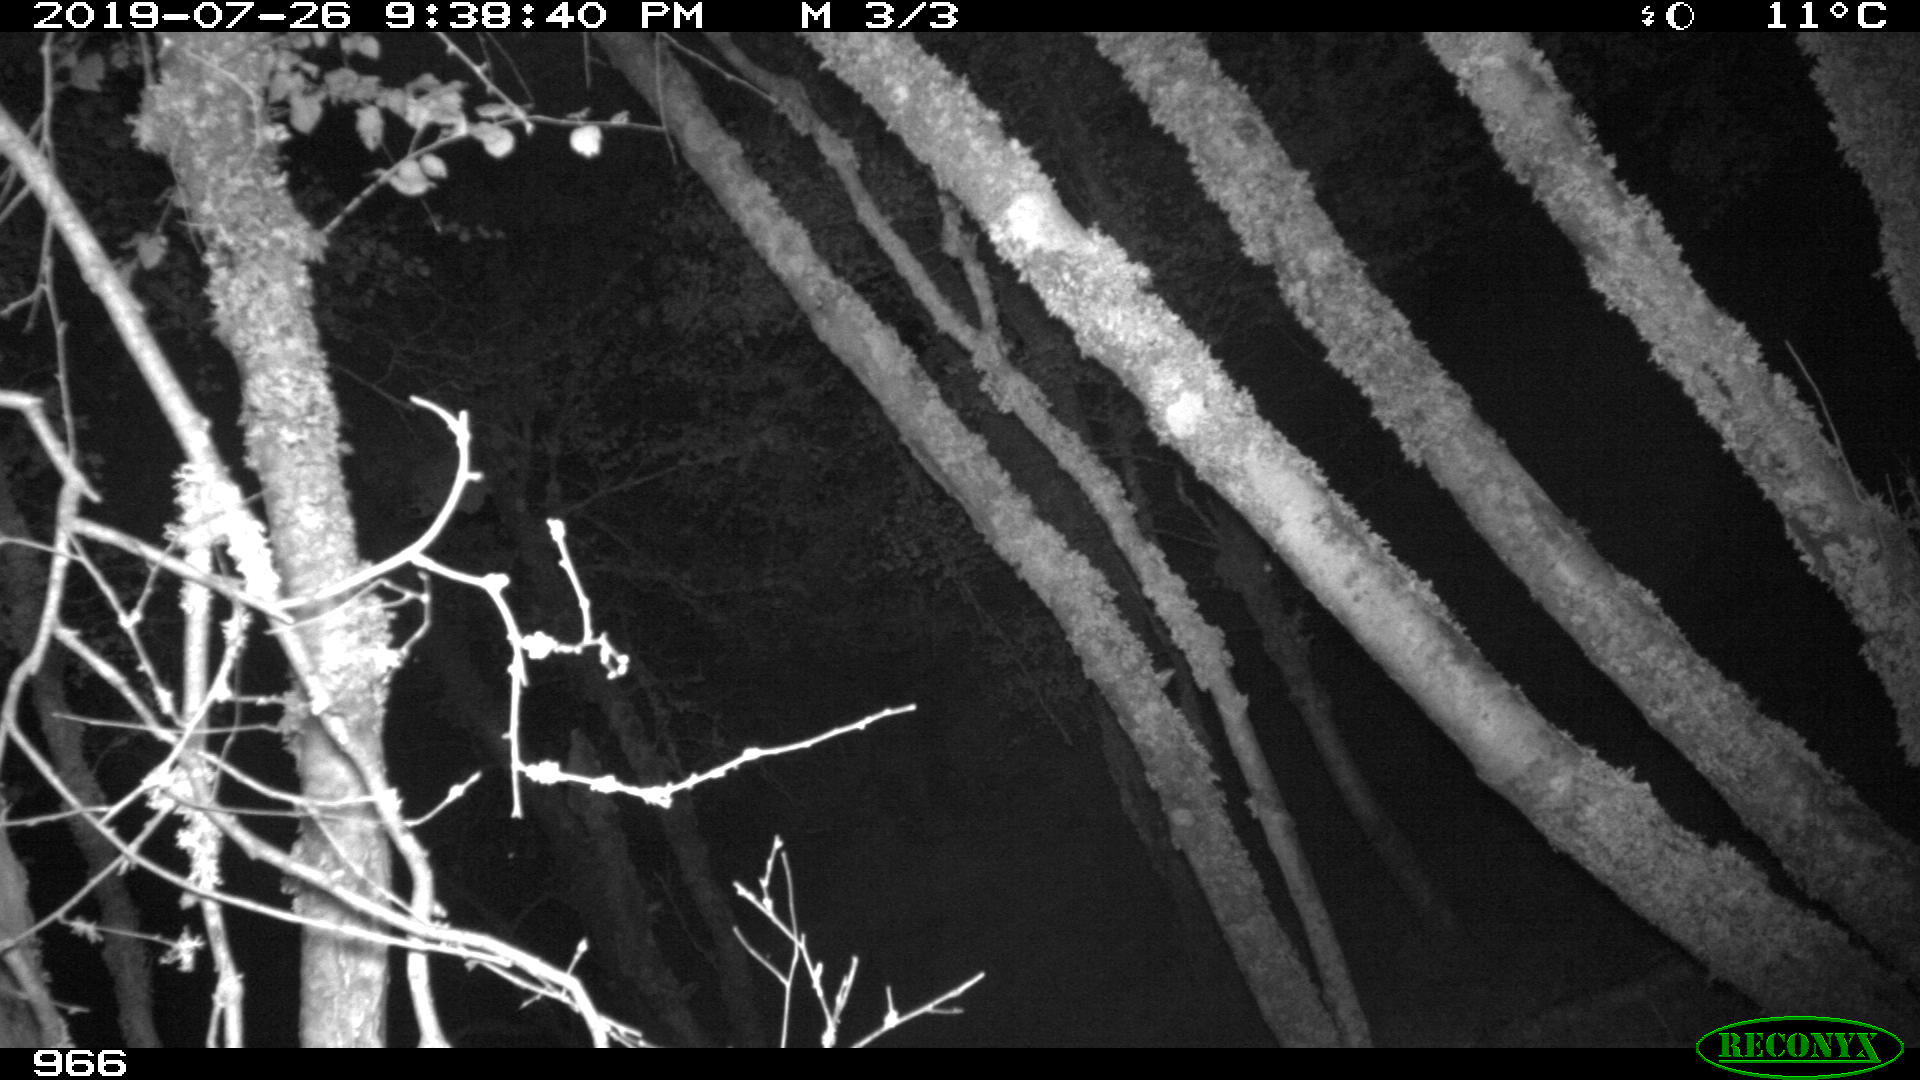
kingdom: Animalia
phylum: Chordata
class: Mammalia
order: Artiodactyla
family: Suidae
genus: Sus
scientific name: Sus scrofa
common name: Wild boar
